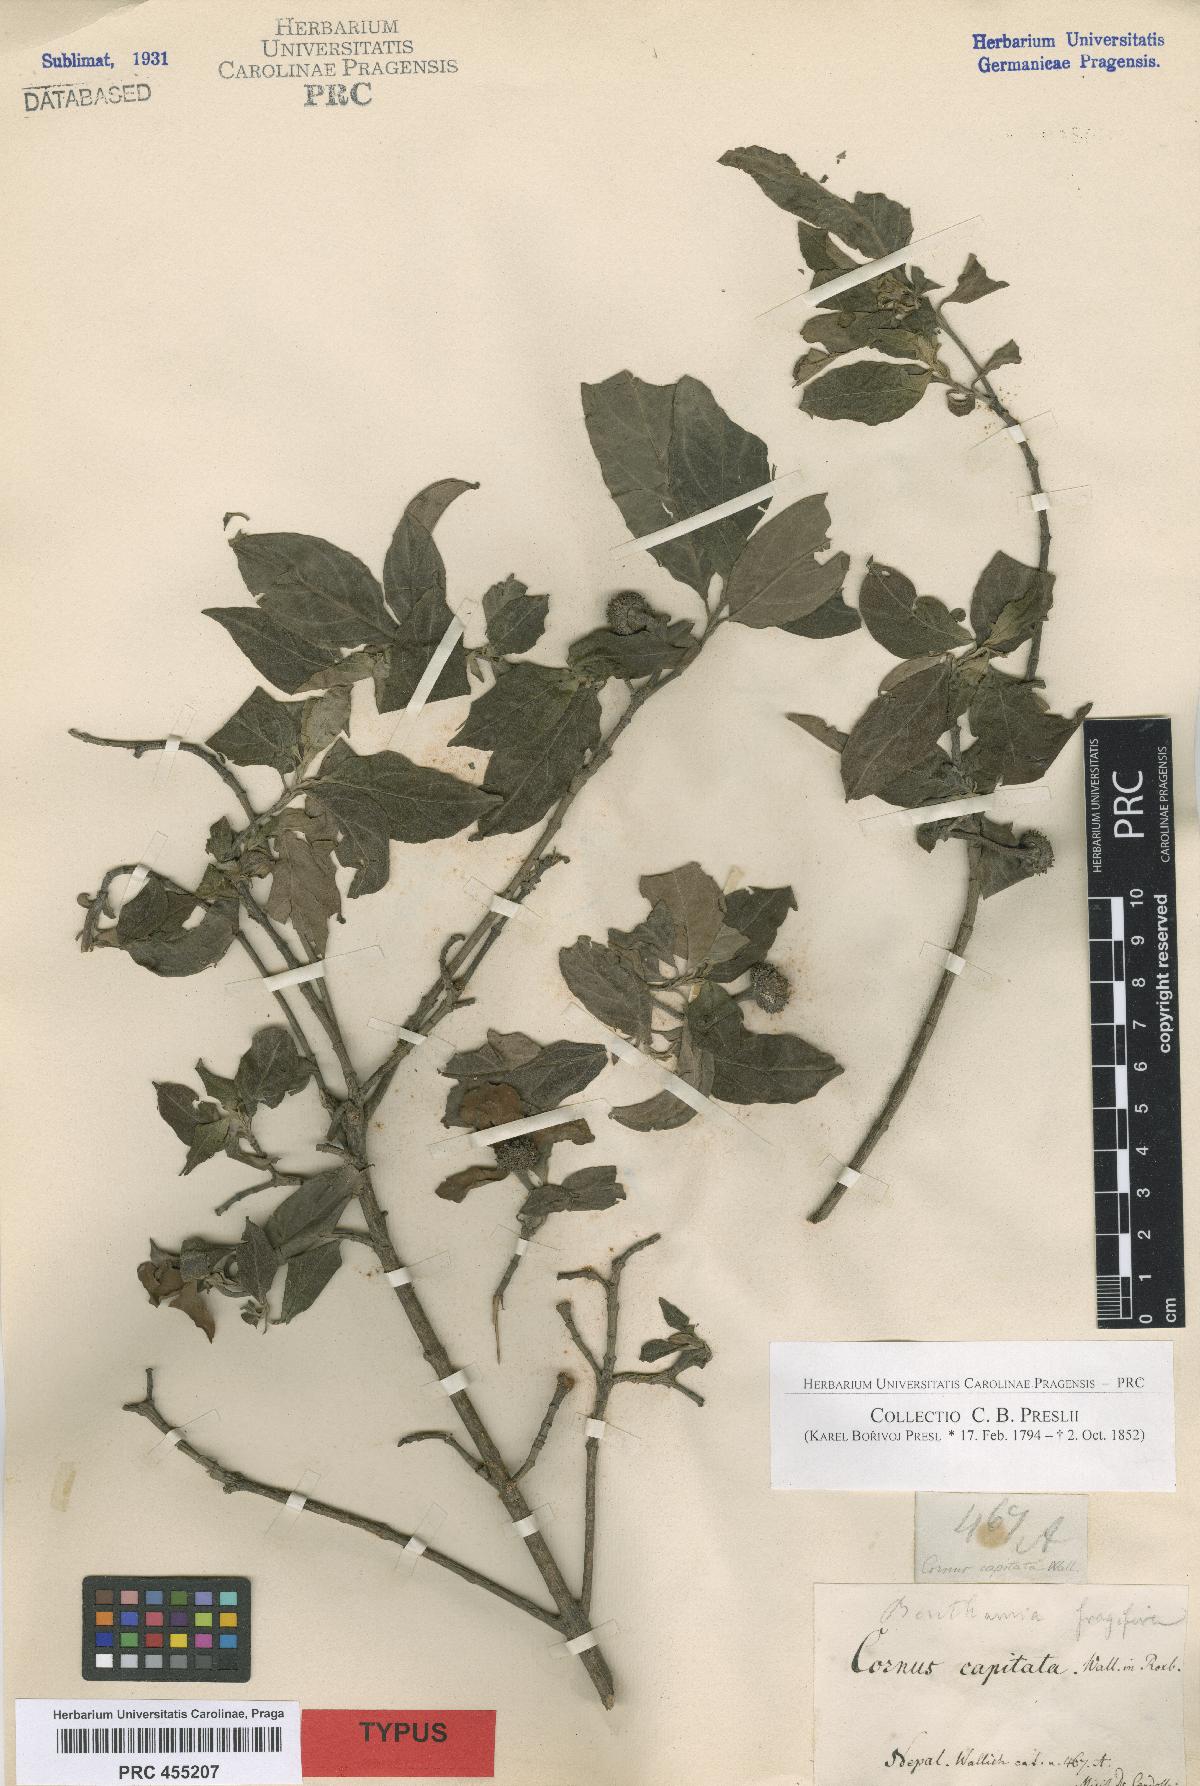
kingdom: Plantae
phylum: Tracheophyta
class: Magnoliopsida
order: Cornales
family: Cornaceae
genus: Cornus
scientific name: Cornus capitata
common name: Bentham's cornel
